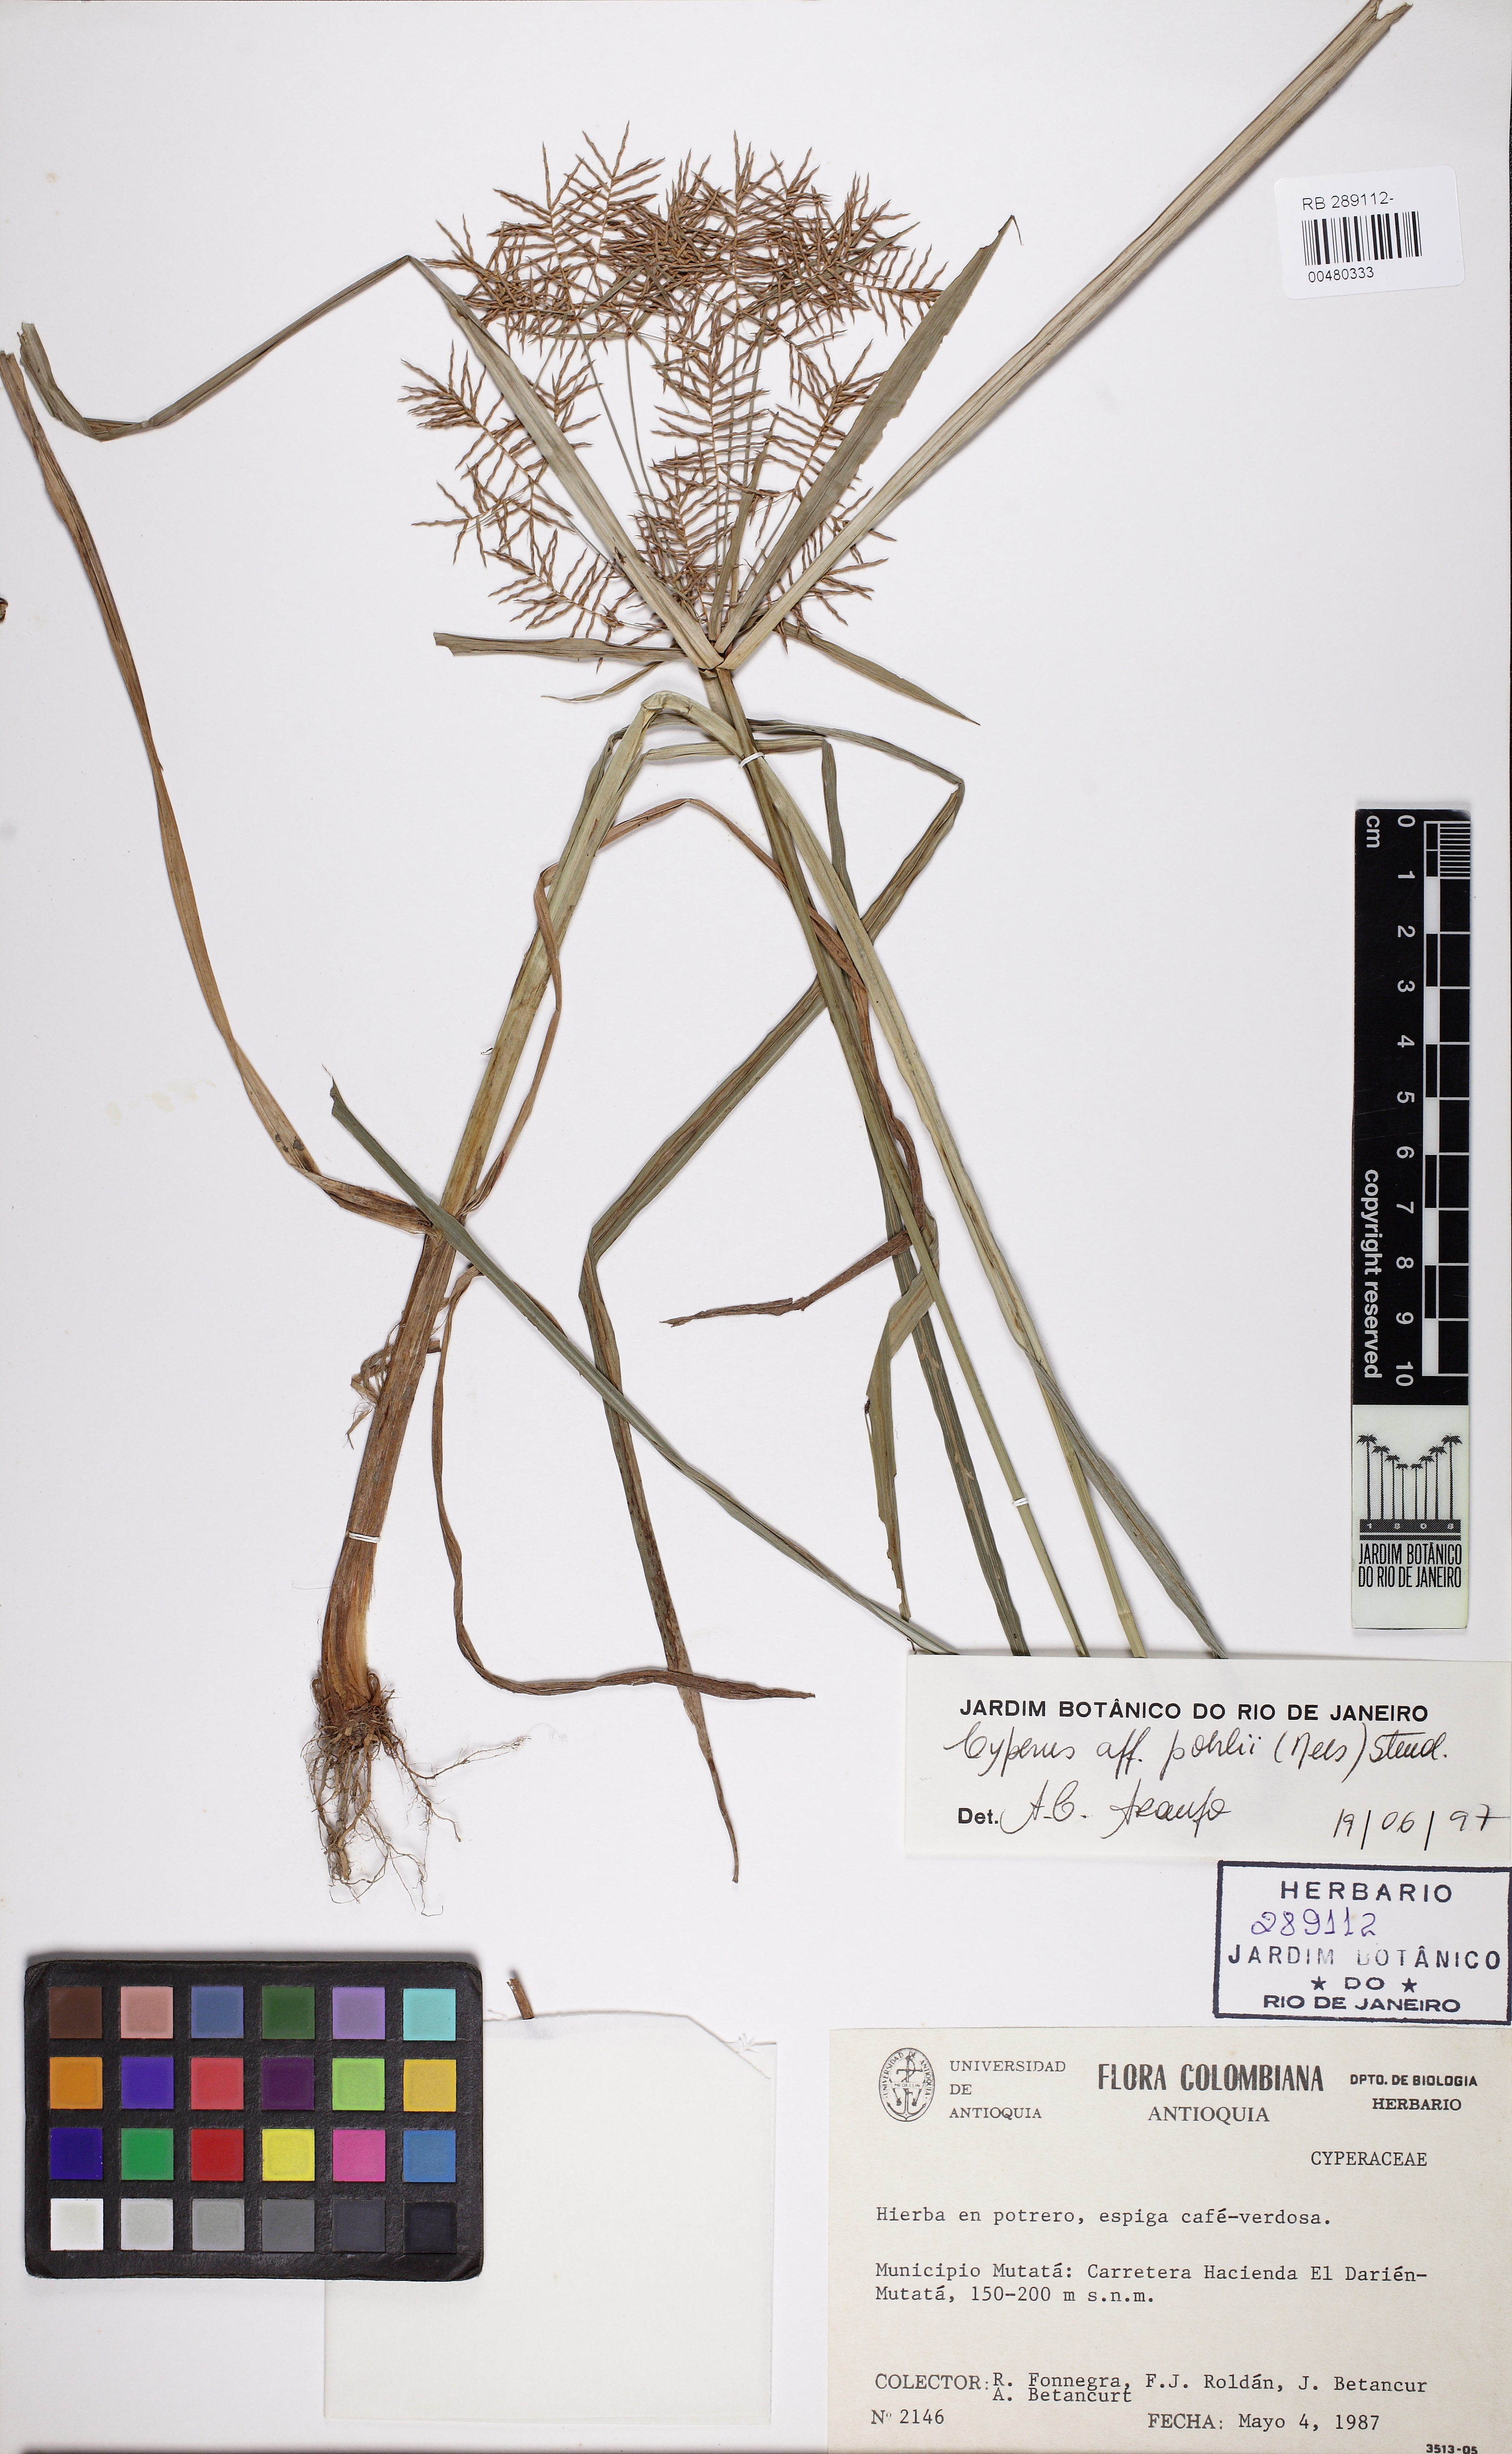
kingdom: Plantae
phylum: Tracheophyta
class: Liliopsida
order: Poales
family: Cyperaceae
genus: Cyperus
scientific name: Cyperus pohlii
